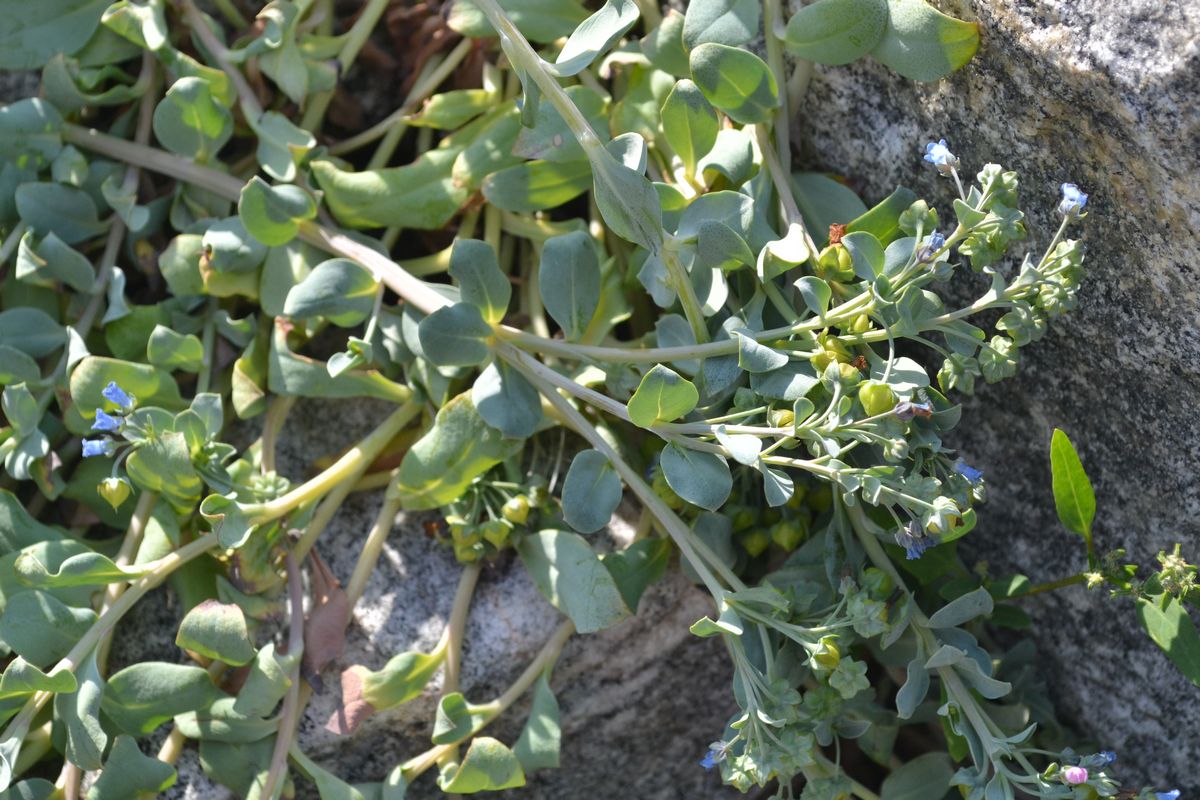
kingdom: Plantae
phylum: Tracheophyta
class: Magnoliopsida
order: Boraginales
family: Boraginaceae
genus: Mertensia
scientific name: Mertensia maritima
